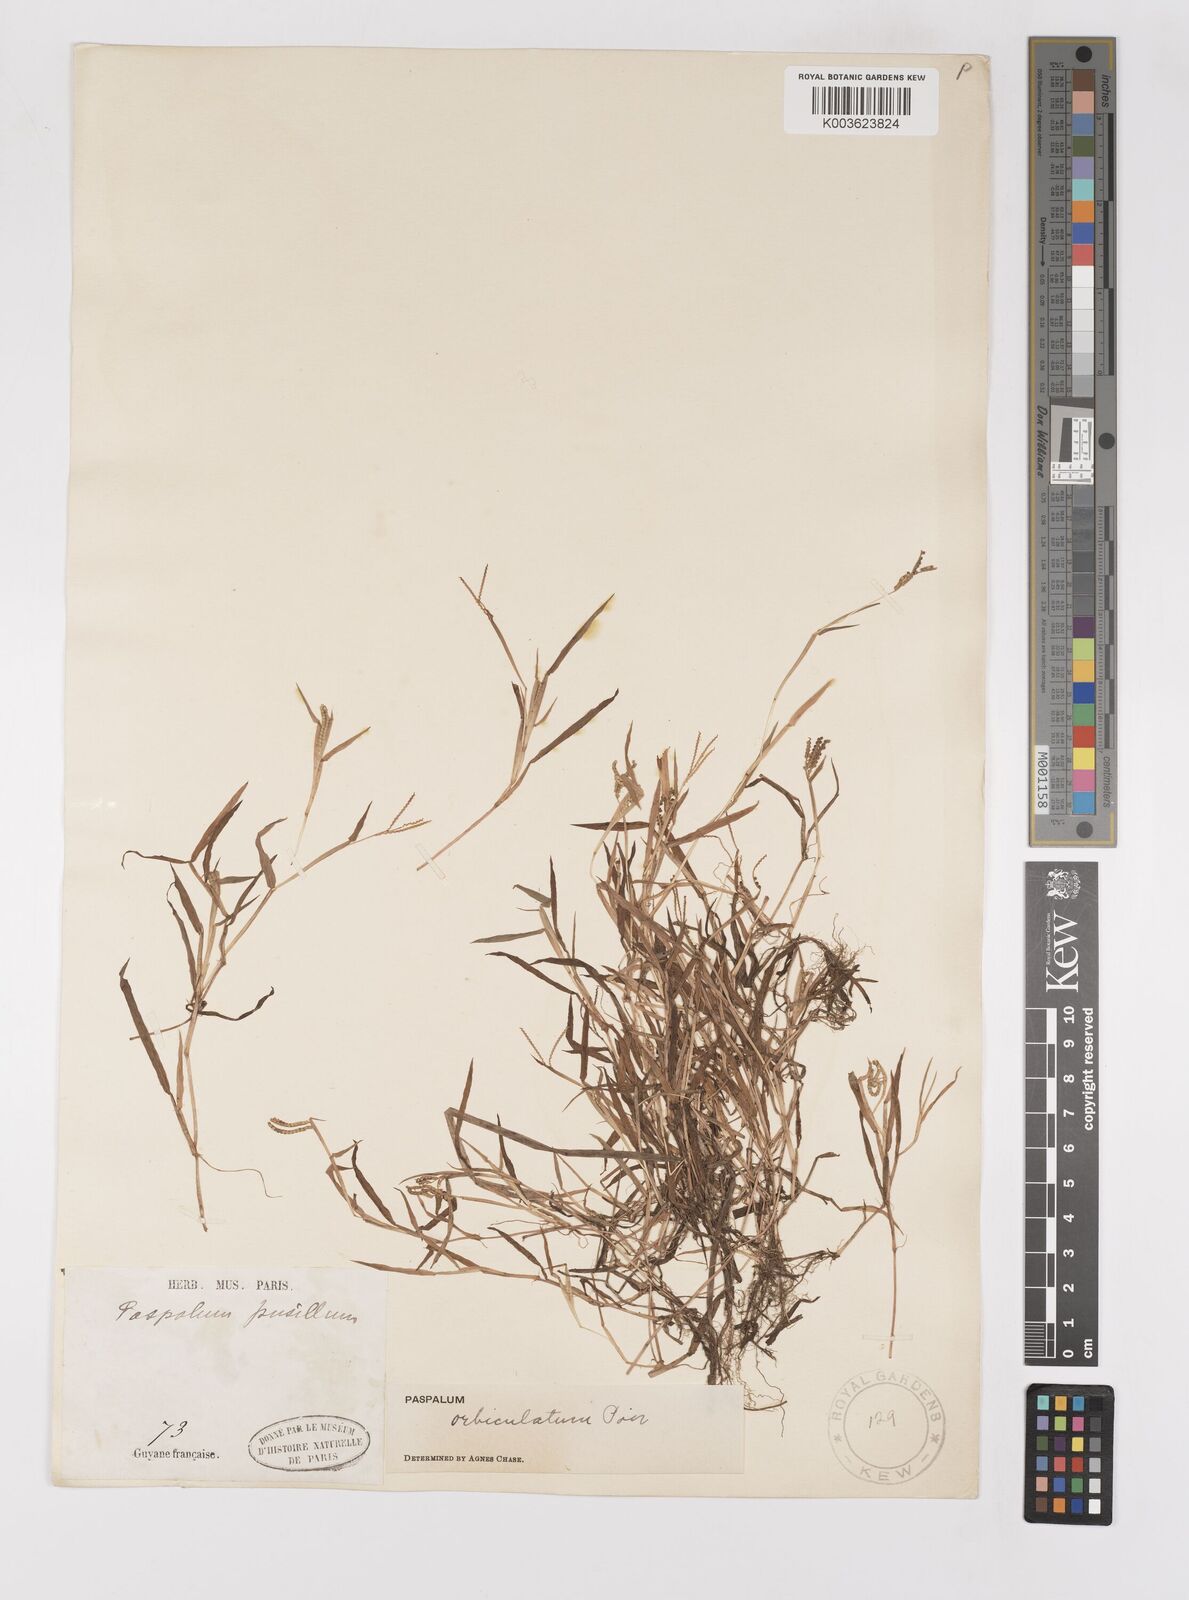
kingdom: Plantae
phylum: Tracheophyta
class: Liliopsida
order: Poales
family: Poaceae
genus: Paspalum
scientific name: Paspalum orbiculatum
